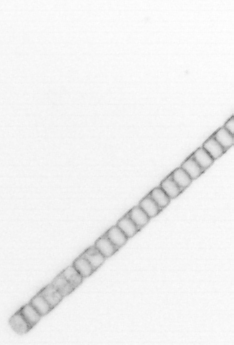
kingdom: Chromista
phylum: Ochrophyta
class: Bacillariophyceae
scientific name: Bacillariophyceae
